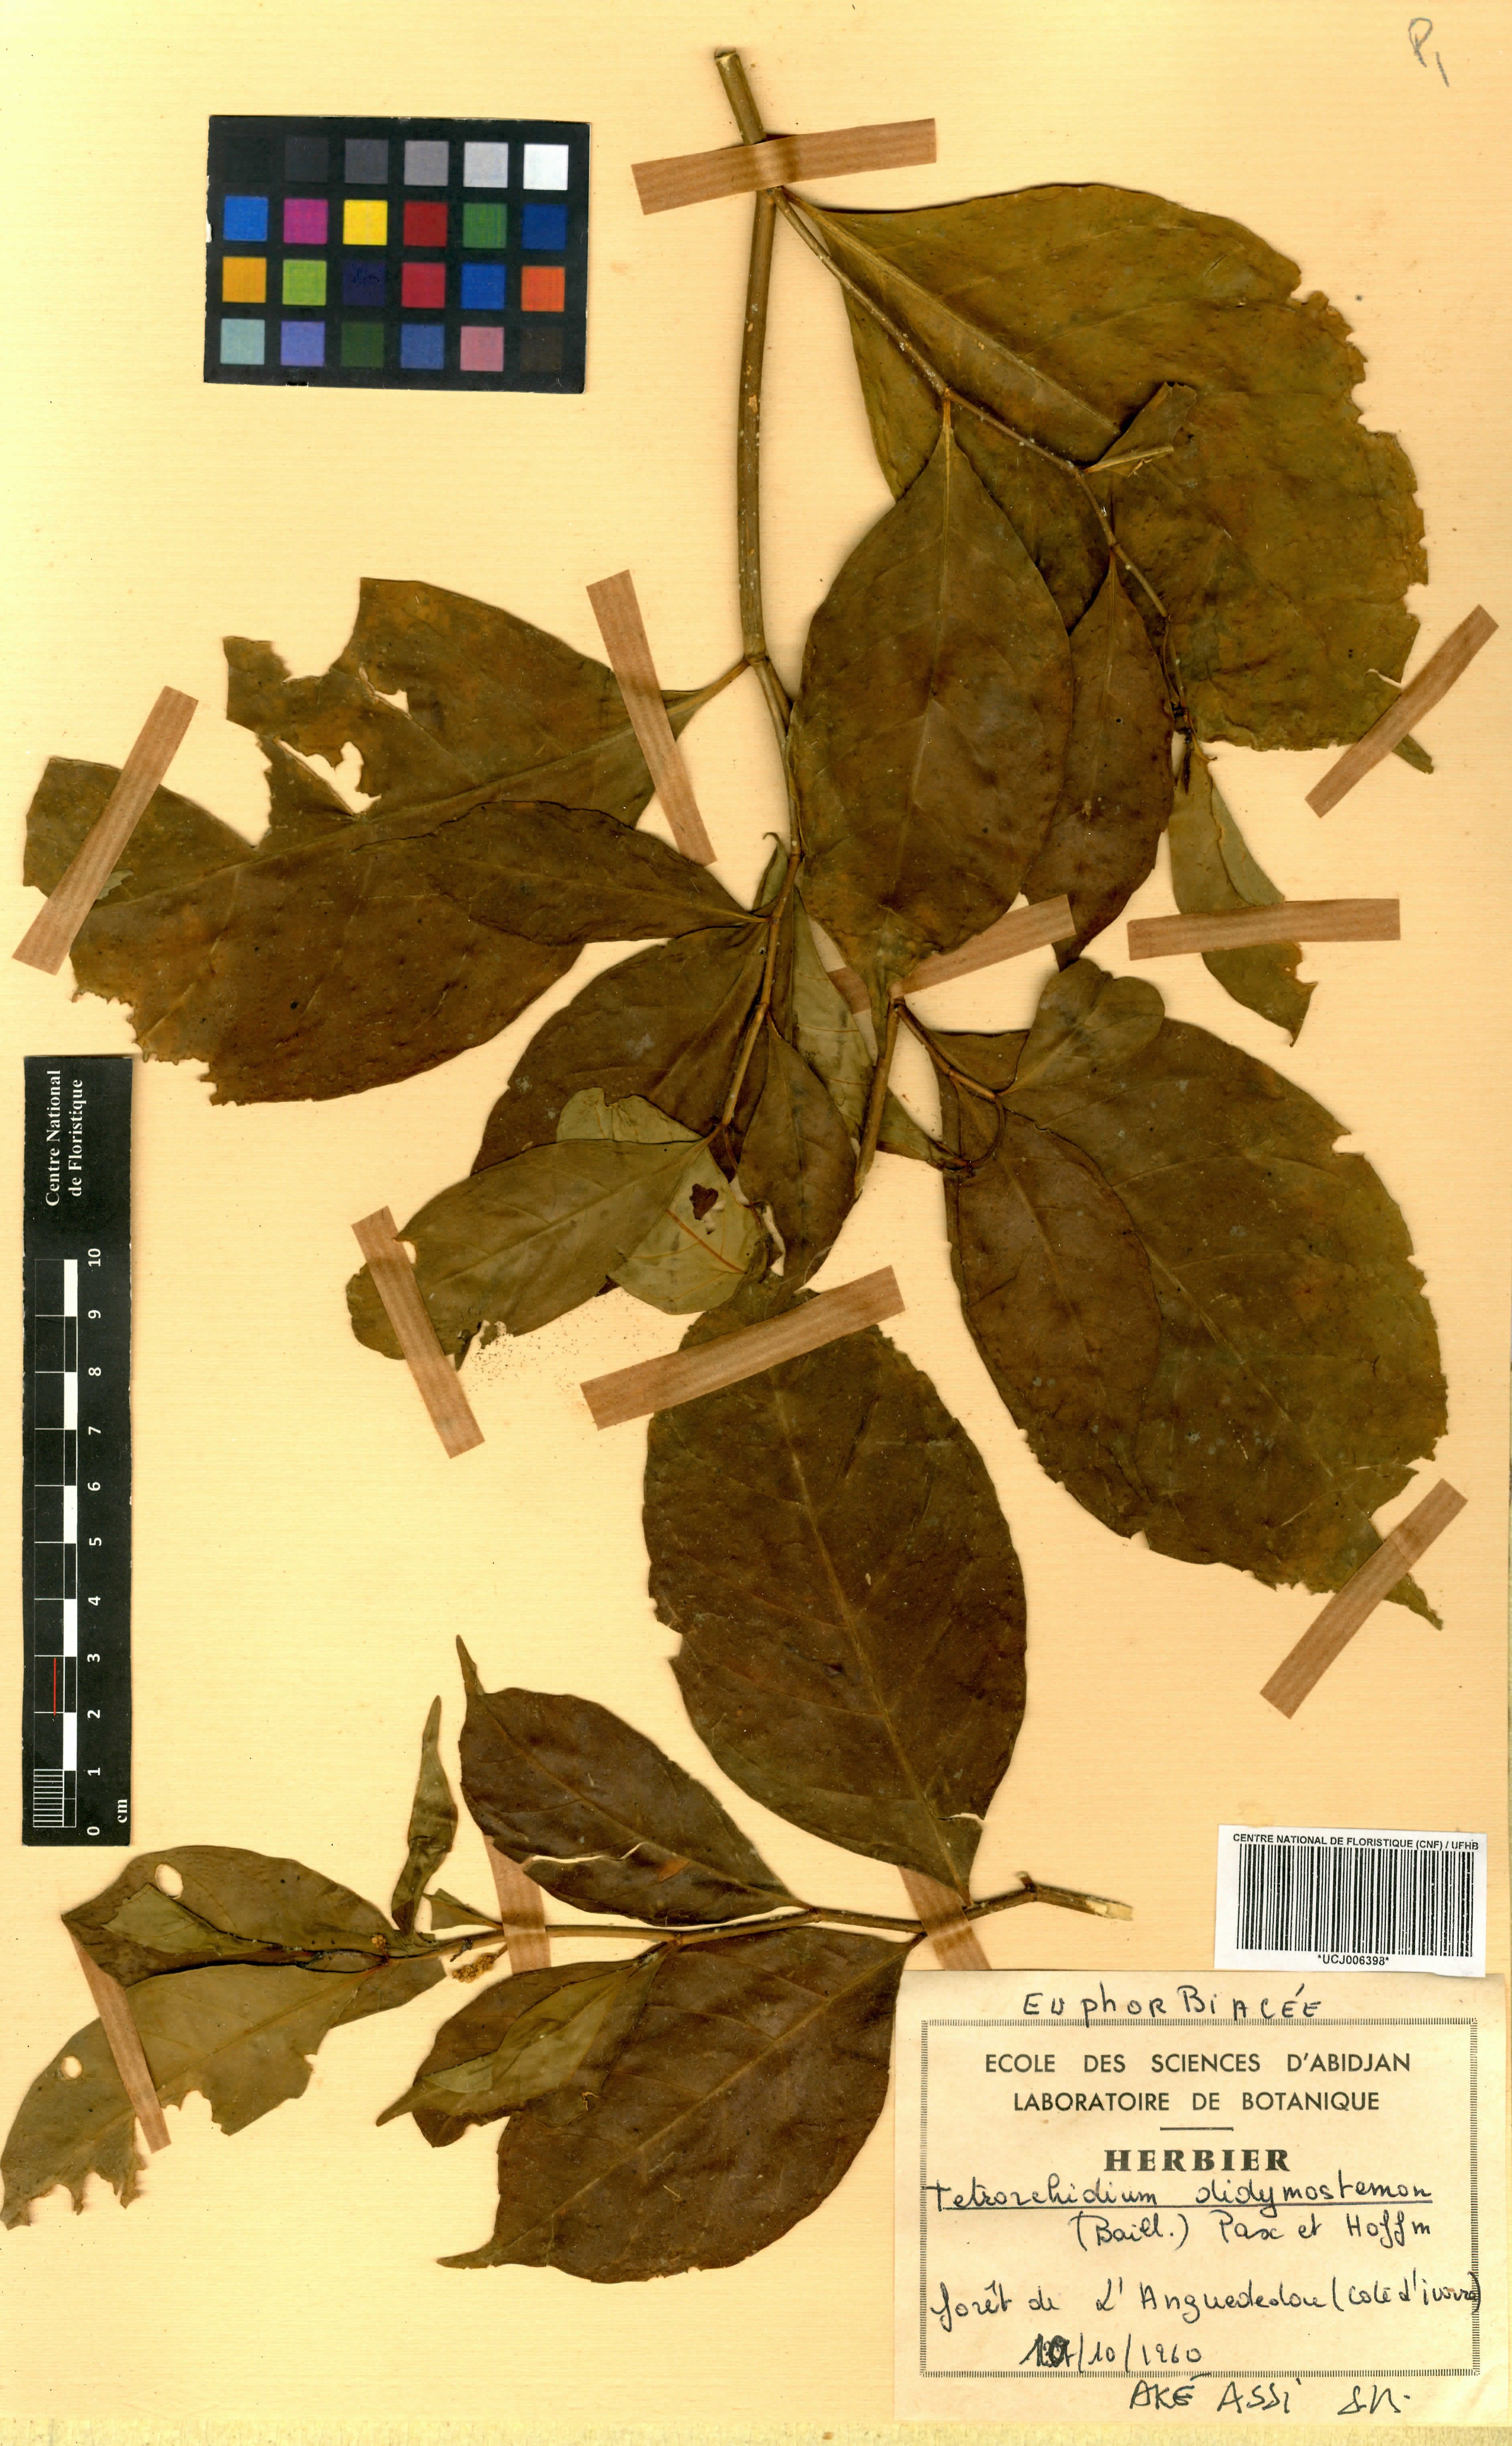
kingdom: Plantae
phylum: Tracheophyta
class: Magnoliopsida
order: Malpighiales
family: Euphorbiaceae
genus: Tetrorchidium
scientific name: Tetrorchidium didymostemon
